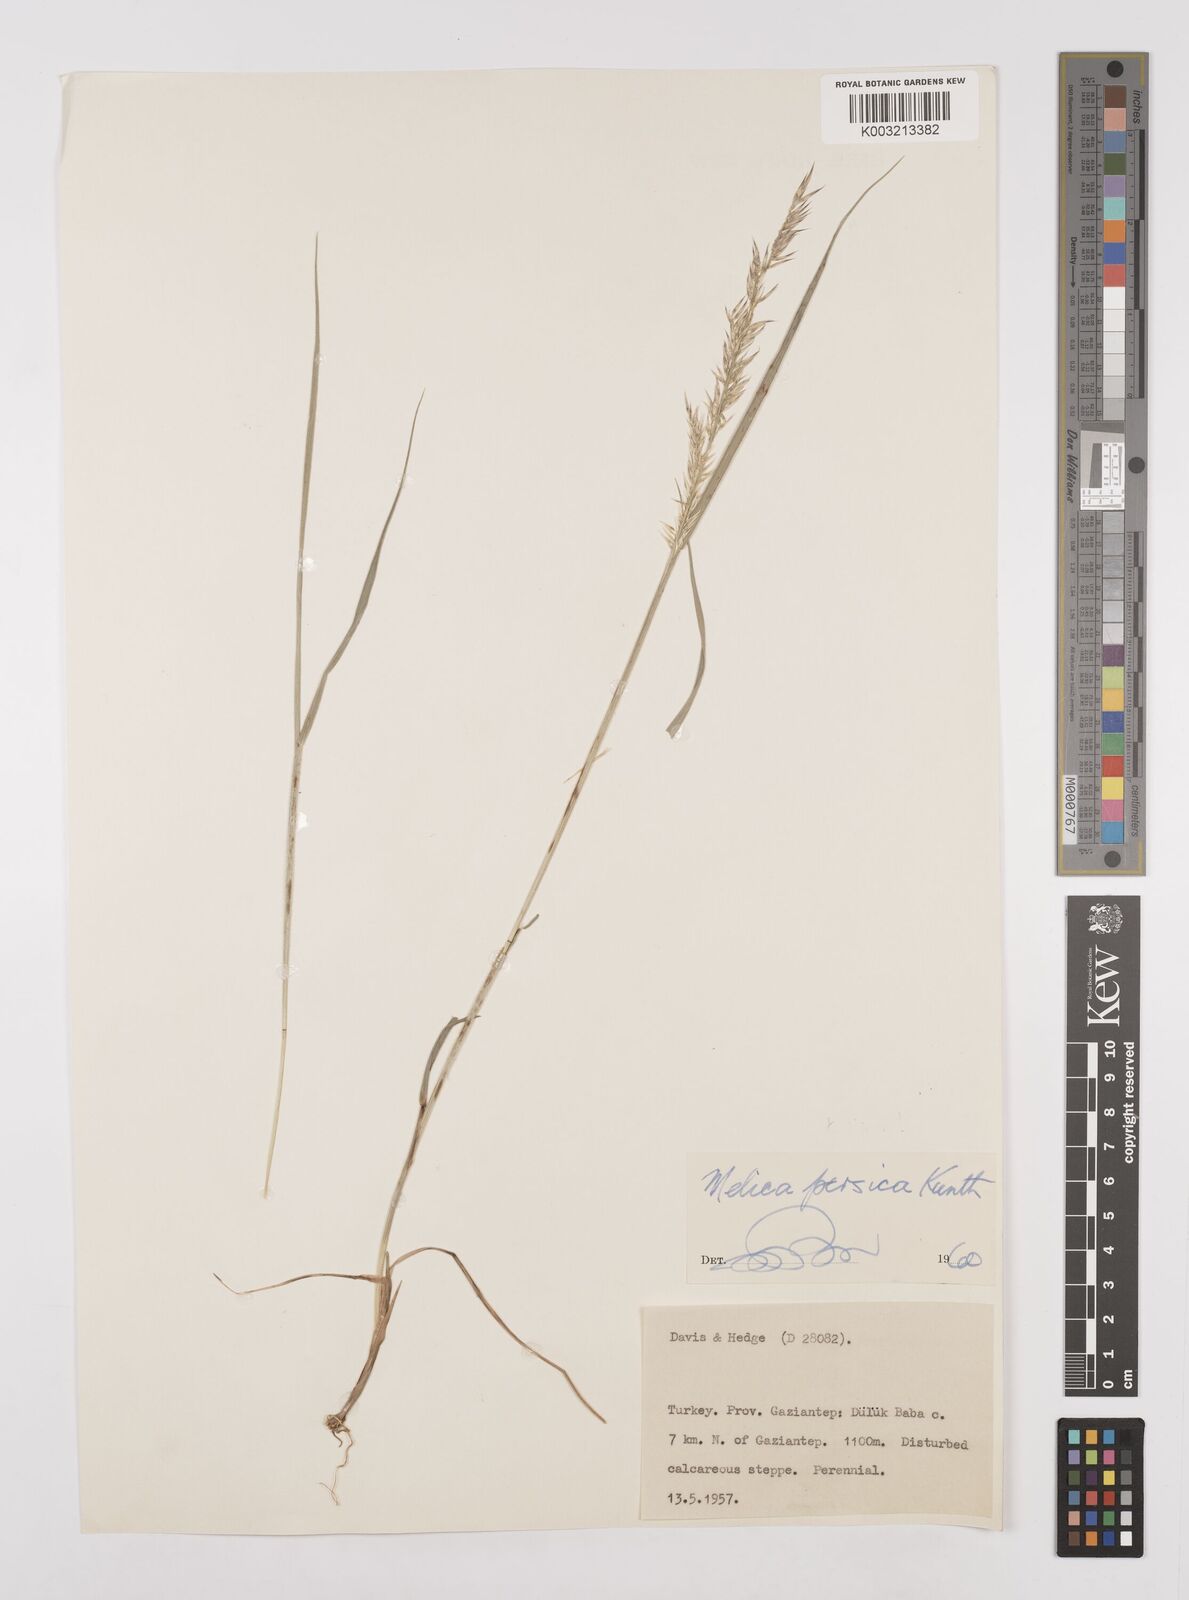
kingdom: Plantae
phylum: Tracheophyta
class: Liliopsida
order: Poales
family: Poaceae
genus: Melica
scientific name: Melica persica
